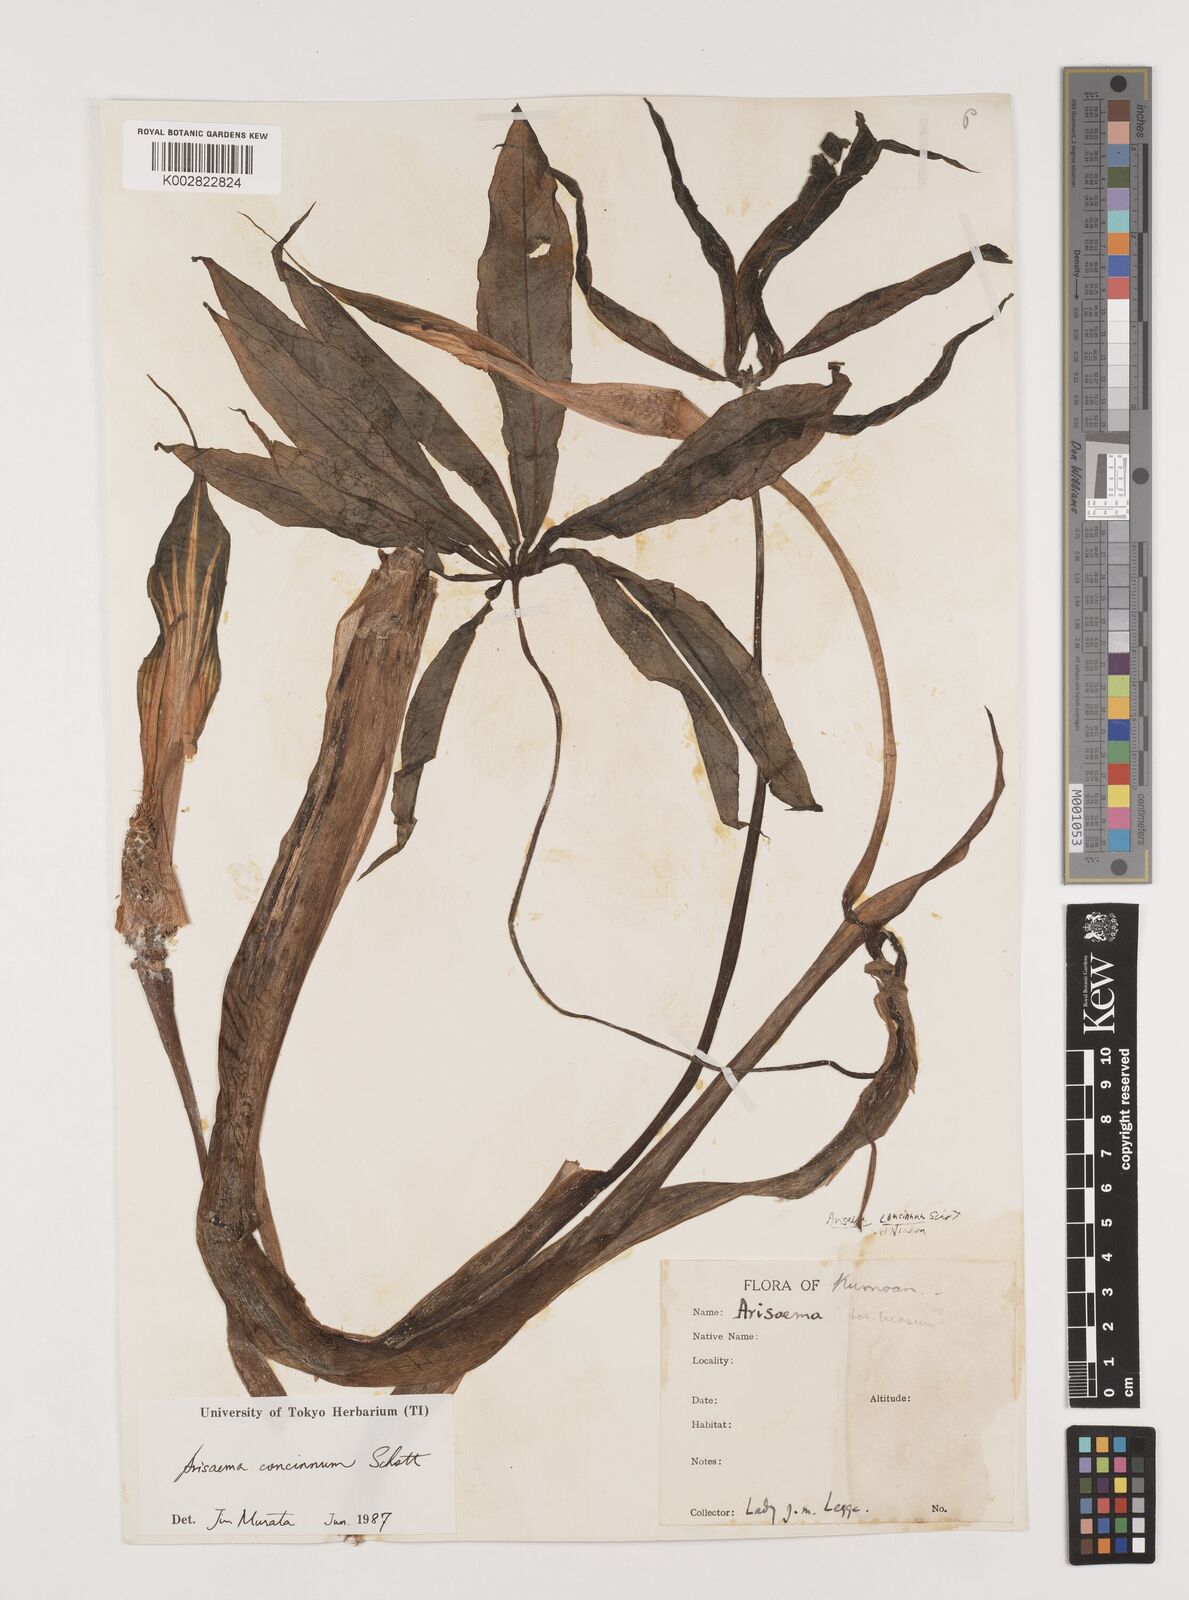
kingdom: Plantae
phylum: Tracheophyta
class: Liliopsida
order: Alismatales
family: Araceae
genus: Arisaema
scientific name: Arisaema concinnum
